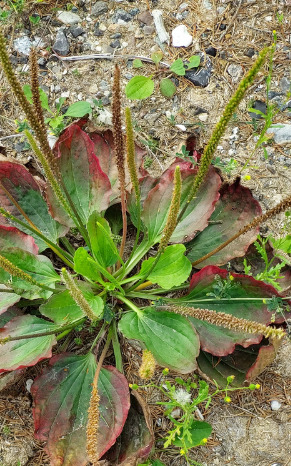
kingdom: Plantae
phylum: Tracheophyta
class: Magnoliopsida
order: Lamiales
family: Plantaginaceae
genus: Plantago
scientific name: Plantago major
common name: Glat vejbred
